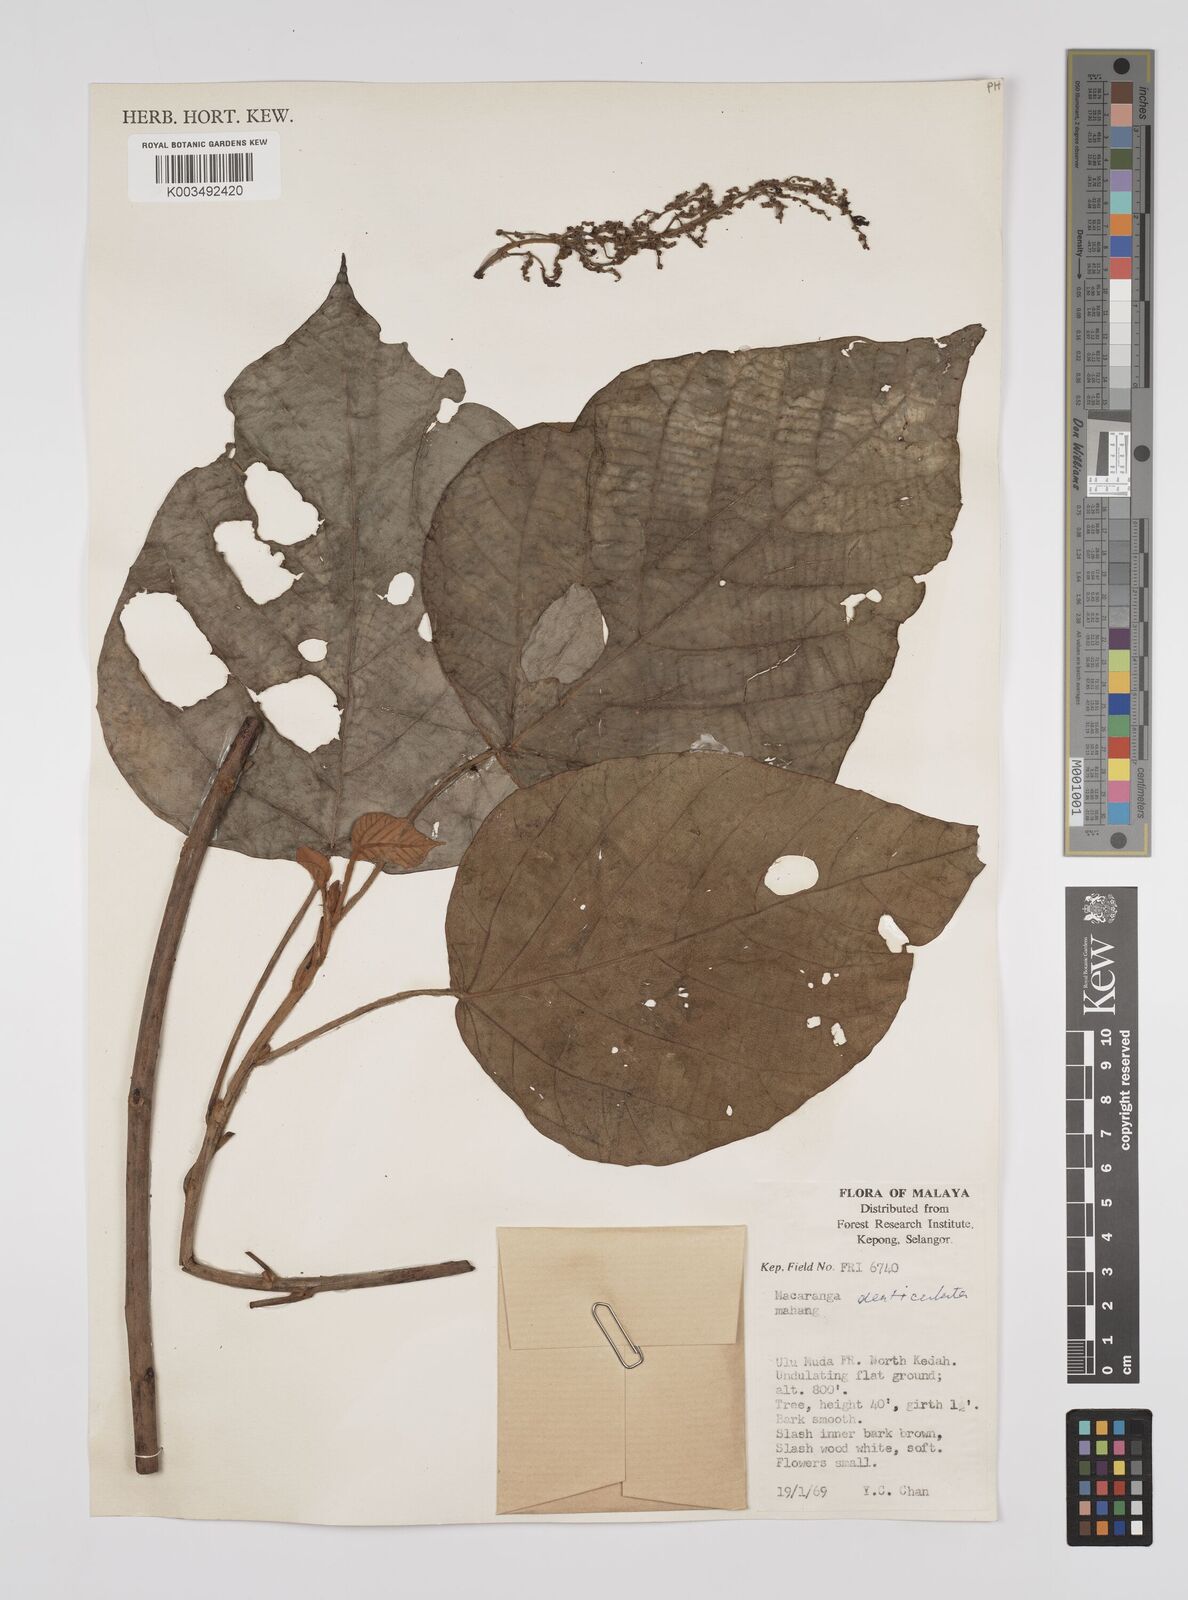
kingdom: Plantae
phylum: Tracheophyta
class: Magnoliopsida
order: Malpighiales
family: Euphorbiaceae
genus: Macaranga
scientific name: Macaranga denticulata
